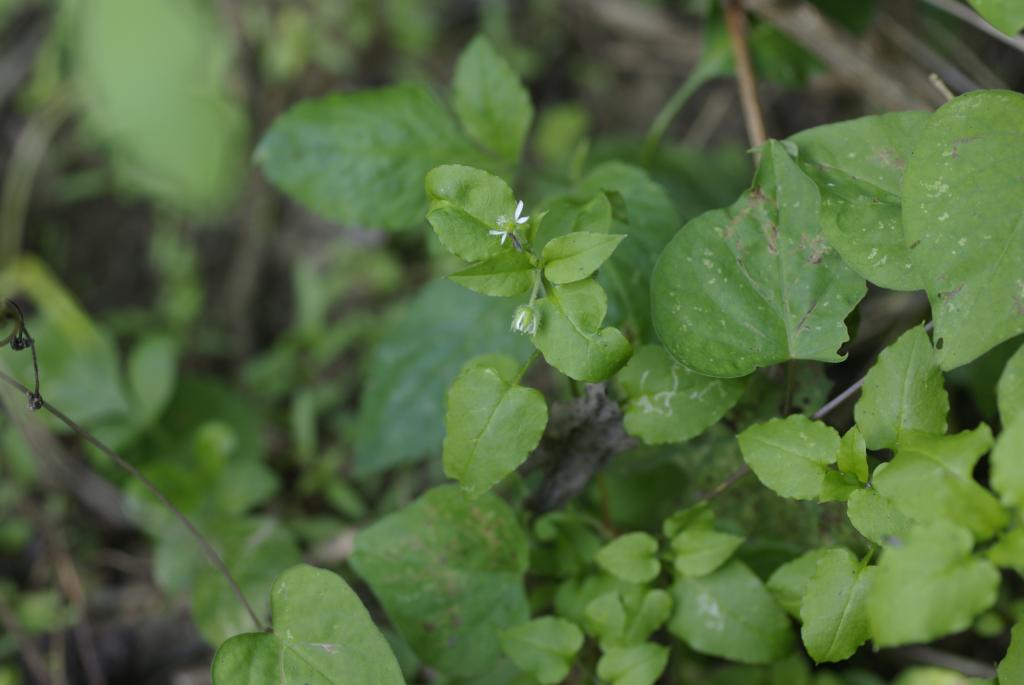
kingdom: Plantae
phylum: Tracheophyta
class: Magnoliopsida
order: Caryophyllales
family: Caryophyllaceae
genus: Stellaria
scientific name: Stellaria aquatica
